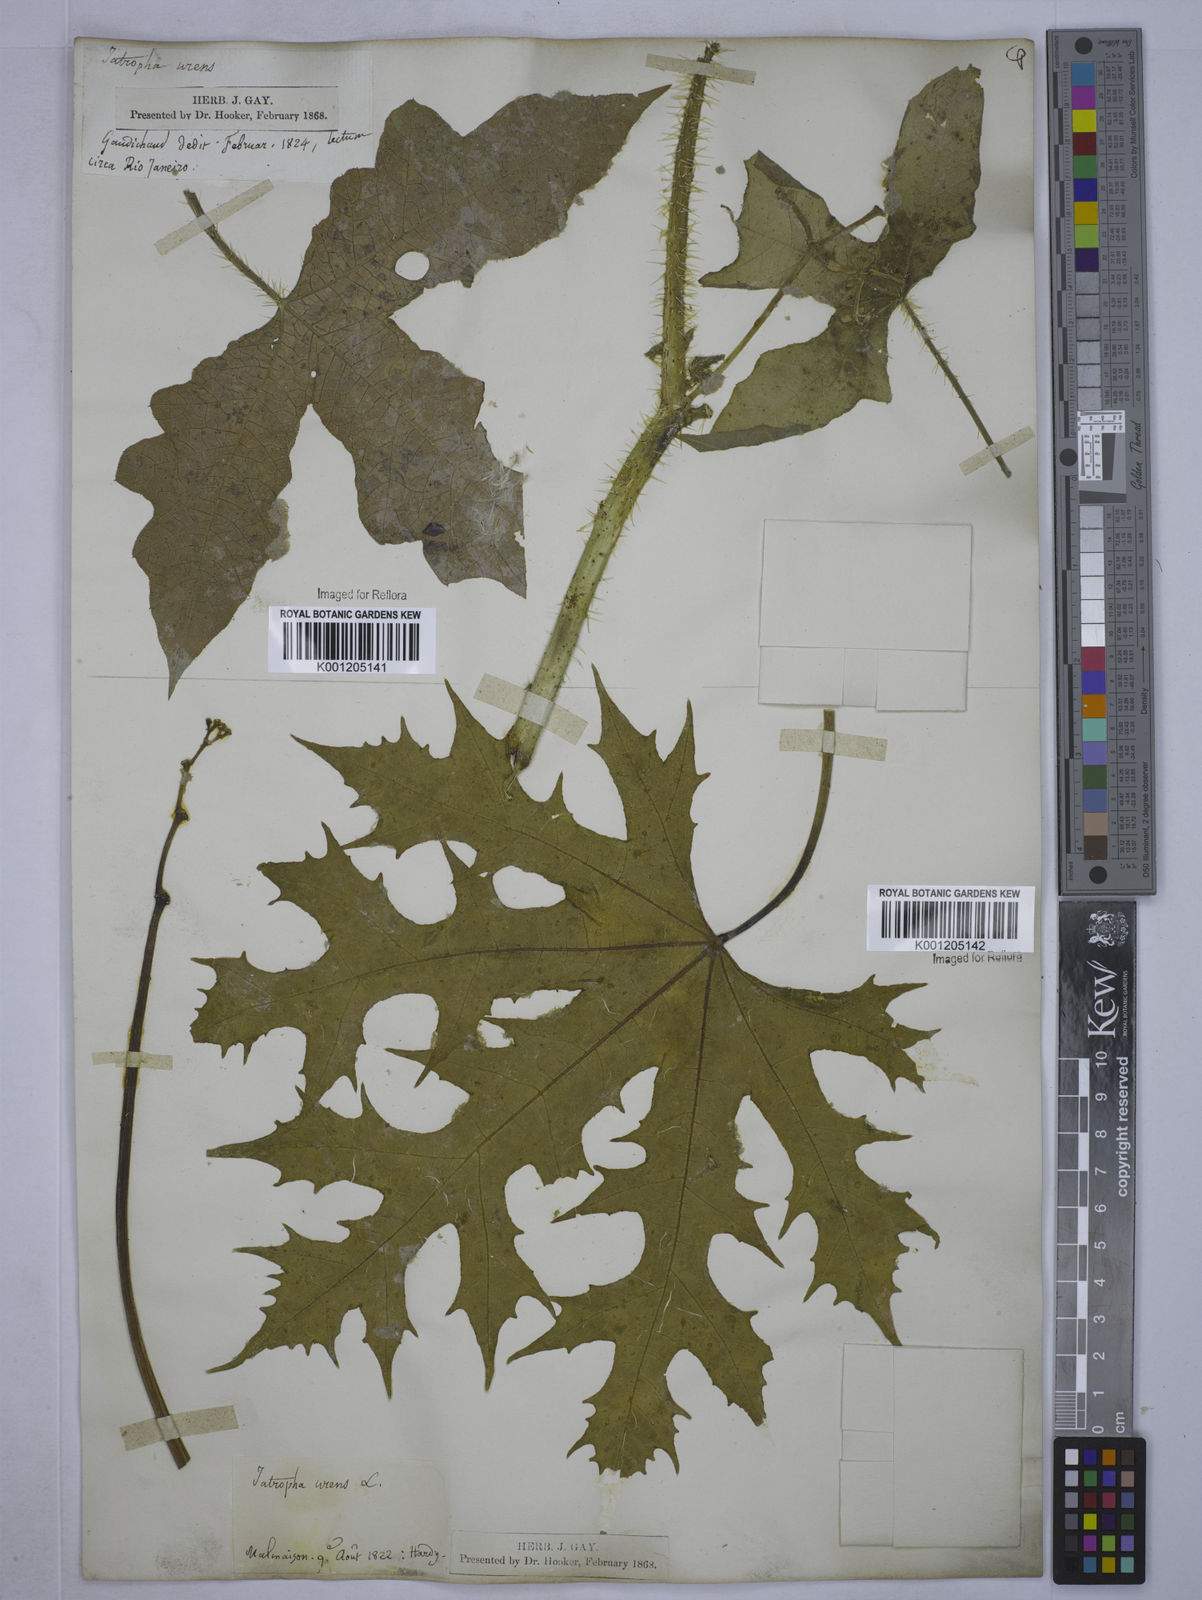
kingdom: Plantae
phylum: Tracheophyta
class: Magnoliopsida
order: Malpighiales
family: Euphorbiaceae
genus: Cnidoscolus
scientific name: Cnidoscolus urens
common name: Bull-nettle
